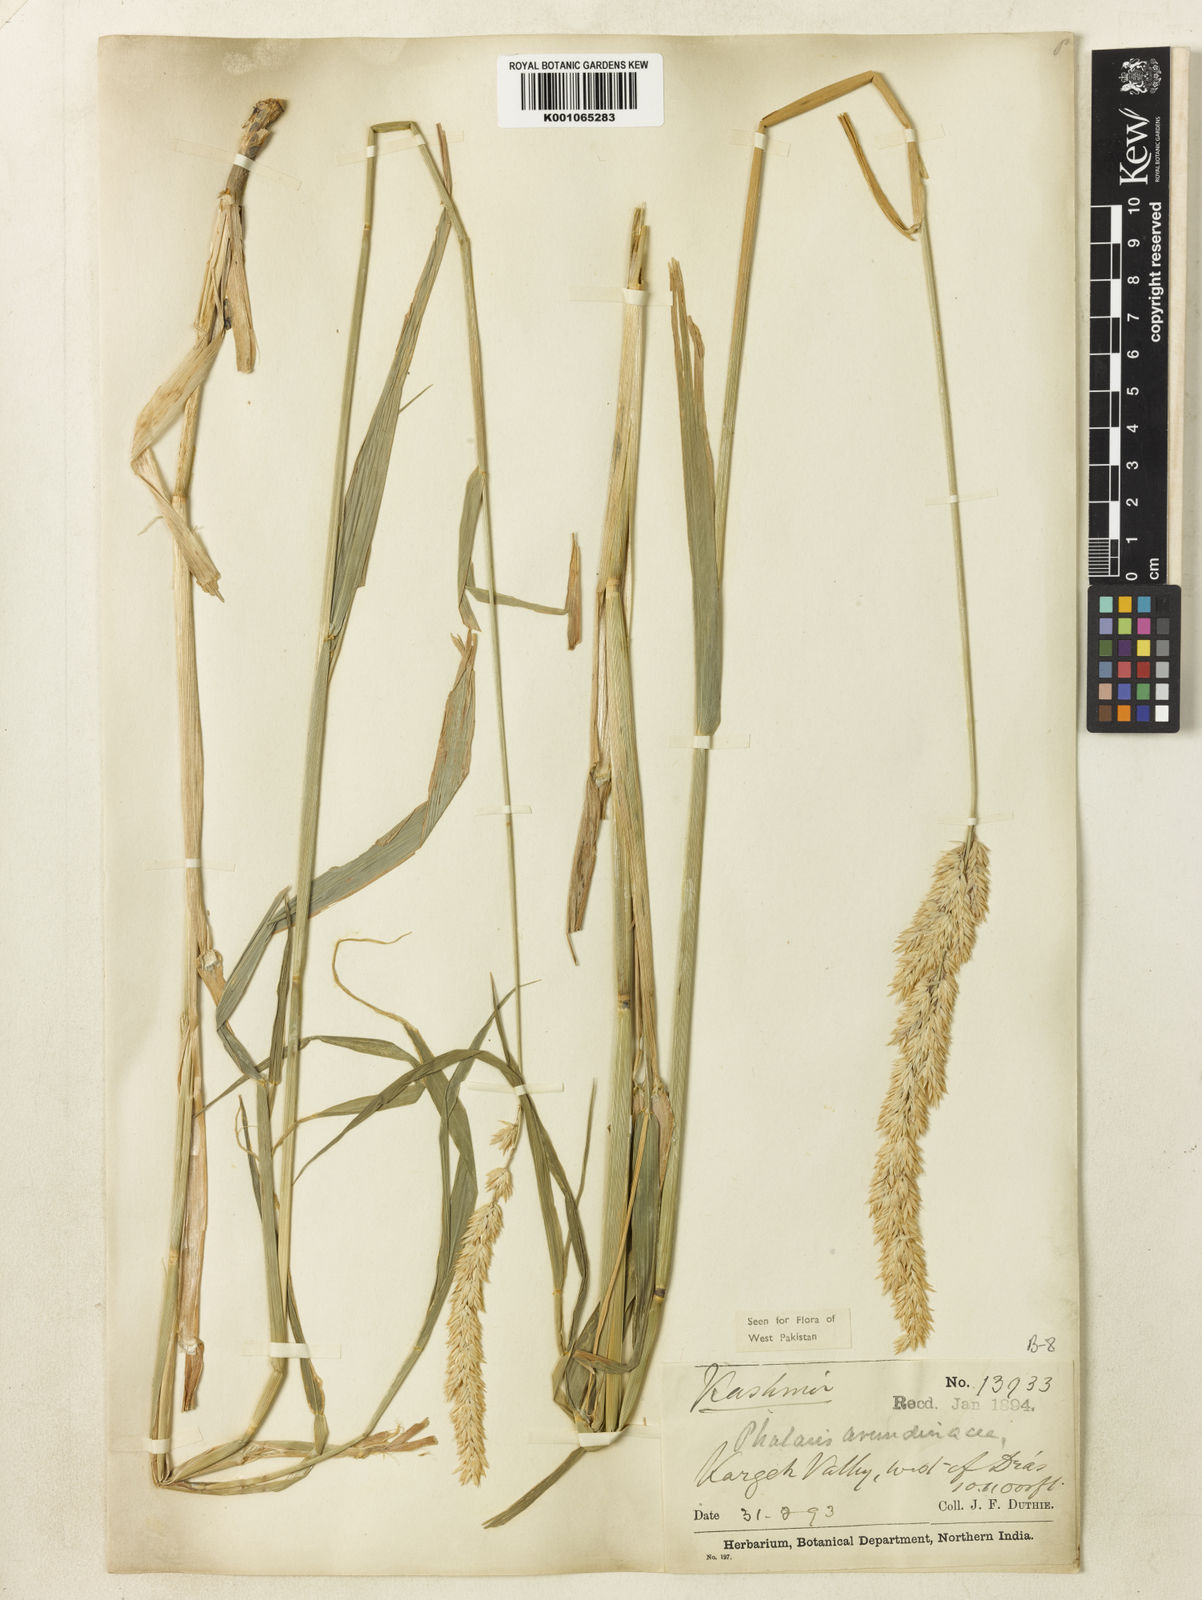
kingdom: Plantae
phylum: Tracheophyta
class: Liliopsida
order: Poales
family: Poaceae
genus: Phalaris
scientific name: Phalaris arundinacea
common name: Reed canary-grass
